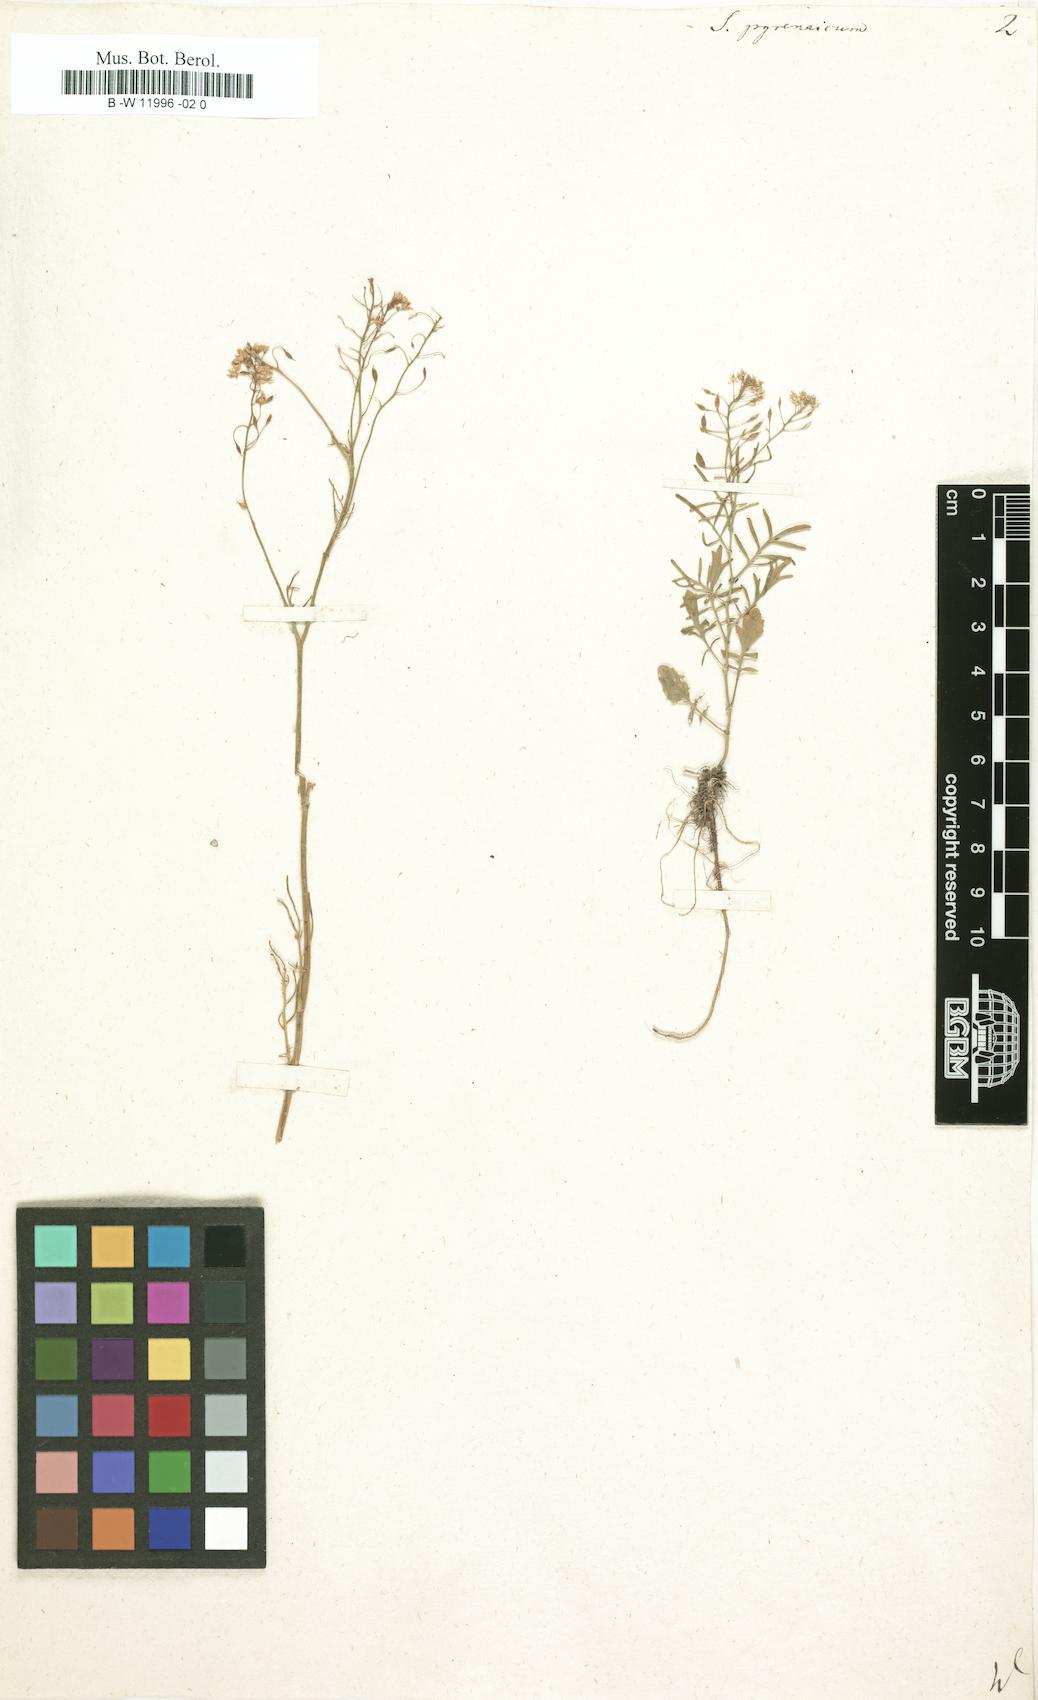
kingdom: Plantae
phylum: Tracheophyta
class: Magnoliopsida
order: Brassicales
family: Brassicaceae
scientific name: Brassicaceae
